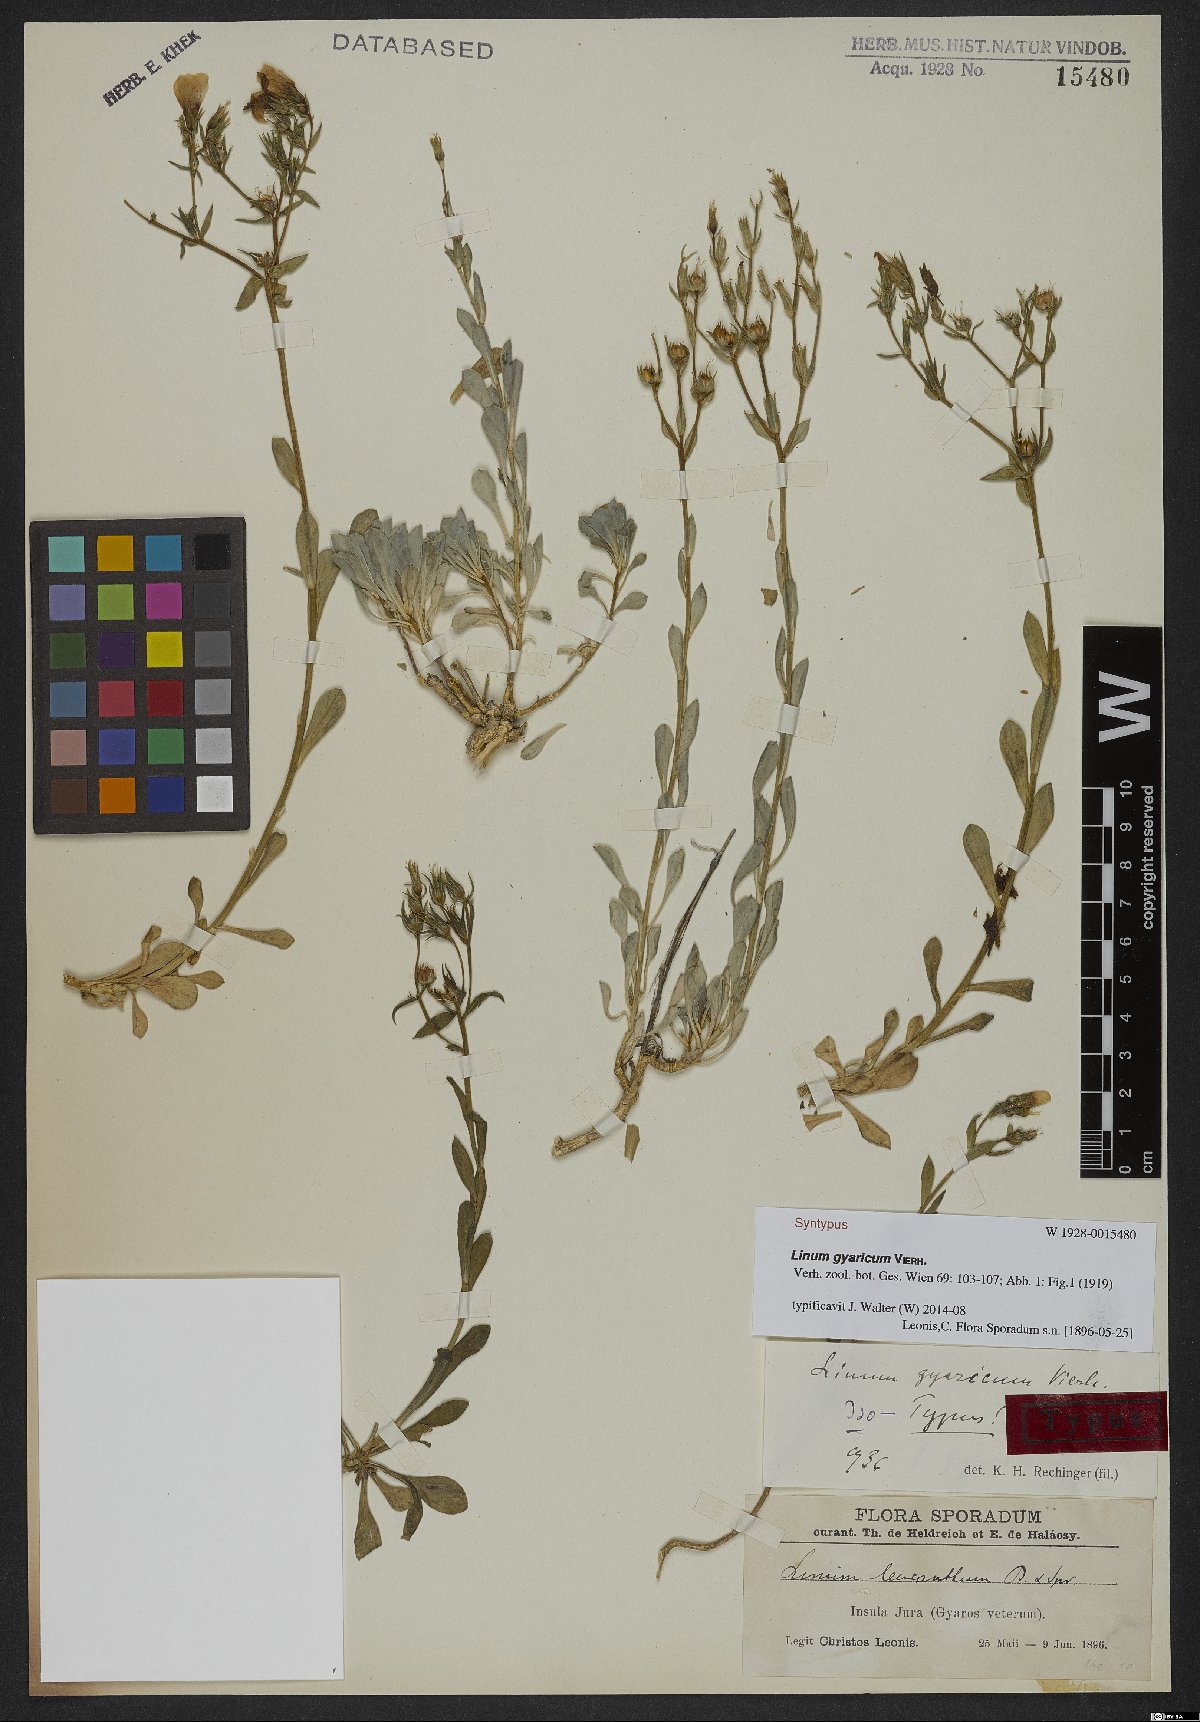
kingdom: Plantae
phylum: Tracheophyta
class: Magnoliopsida
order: Malpighiales
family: Linaceae
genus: Linum
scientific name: Linum gyaricum
